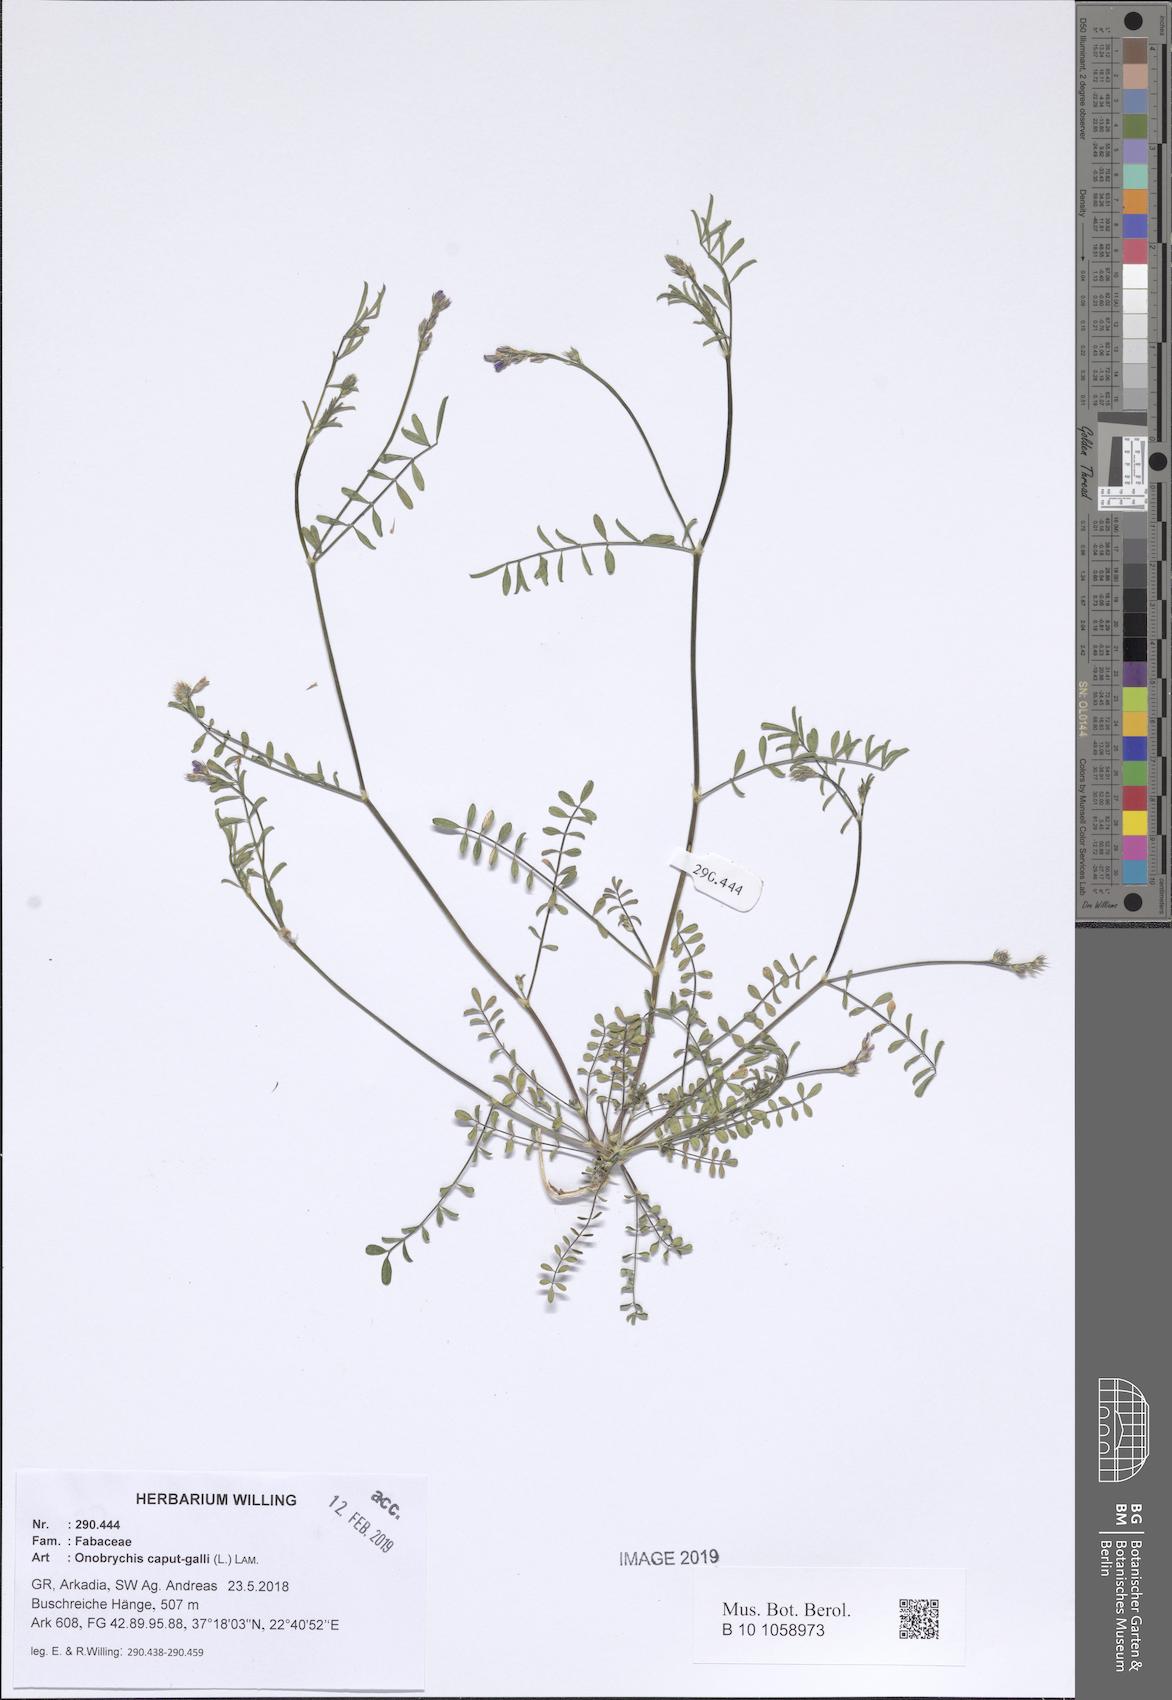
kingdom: Plantae
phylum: Tracheophyta
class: Magnoliopsida
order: Fabales
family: Fabaceae
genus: Onobrychis
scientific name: Onobrychis caput-galli
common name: Cockscomb sainfoin
